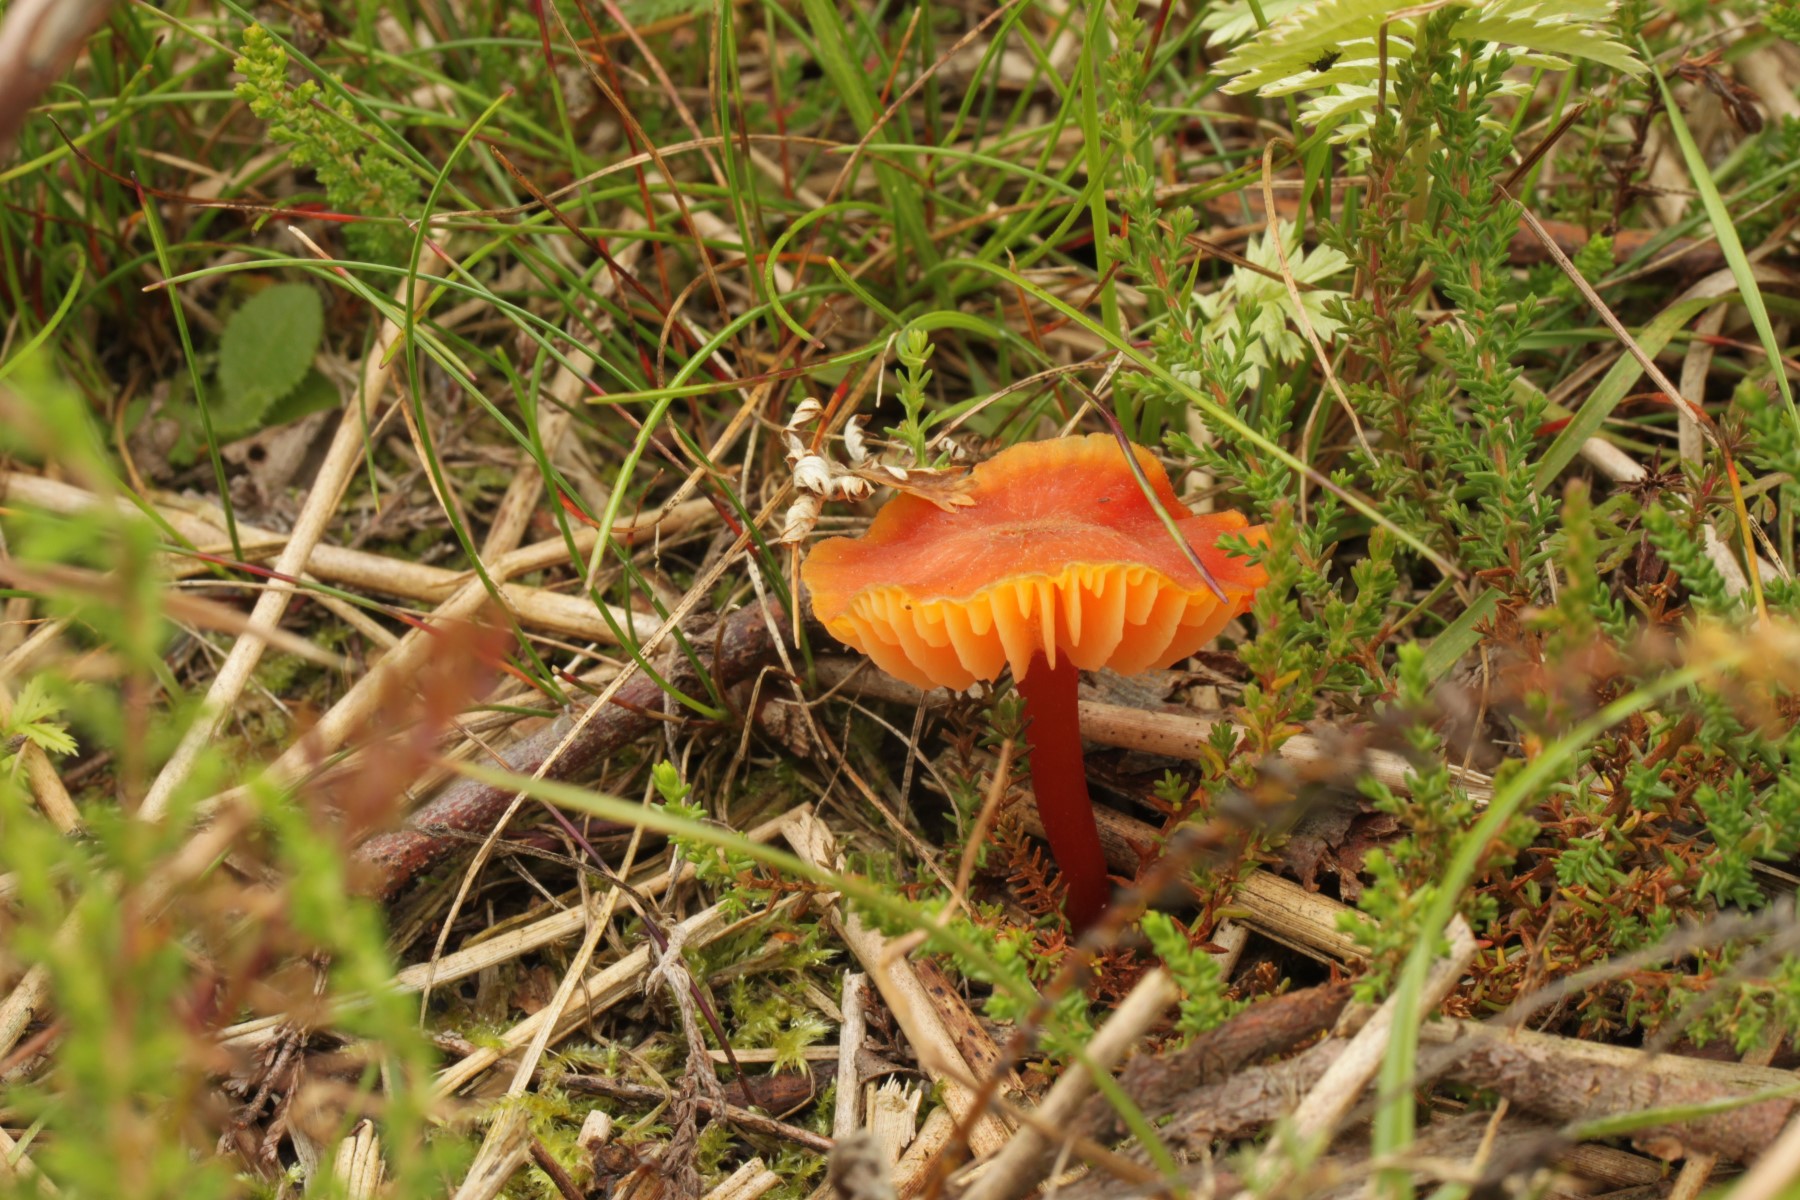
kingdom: Fungi
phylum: Basidiomycota
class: Agaricomycetes
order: Agaricales
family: Hygrophoraceae
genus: Hygrocybe
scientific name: Hygrocybe miniata
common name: mønje-vokshat
